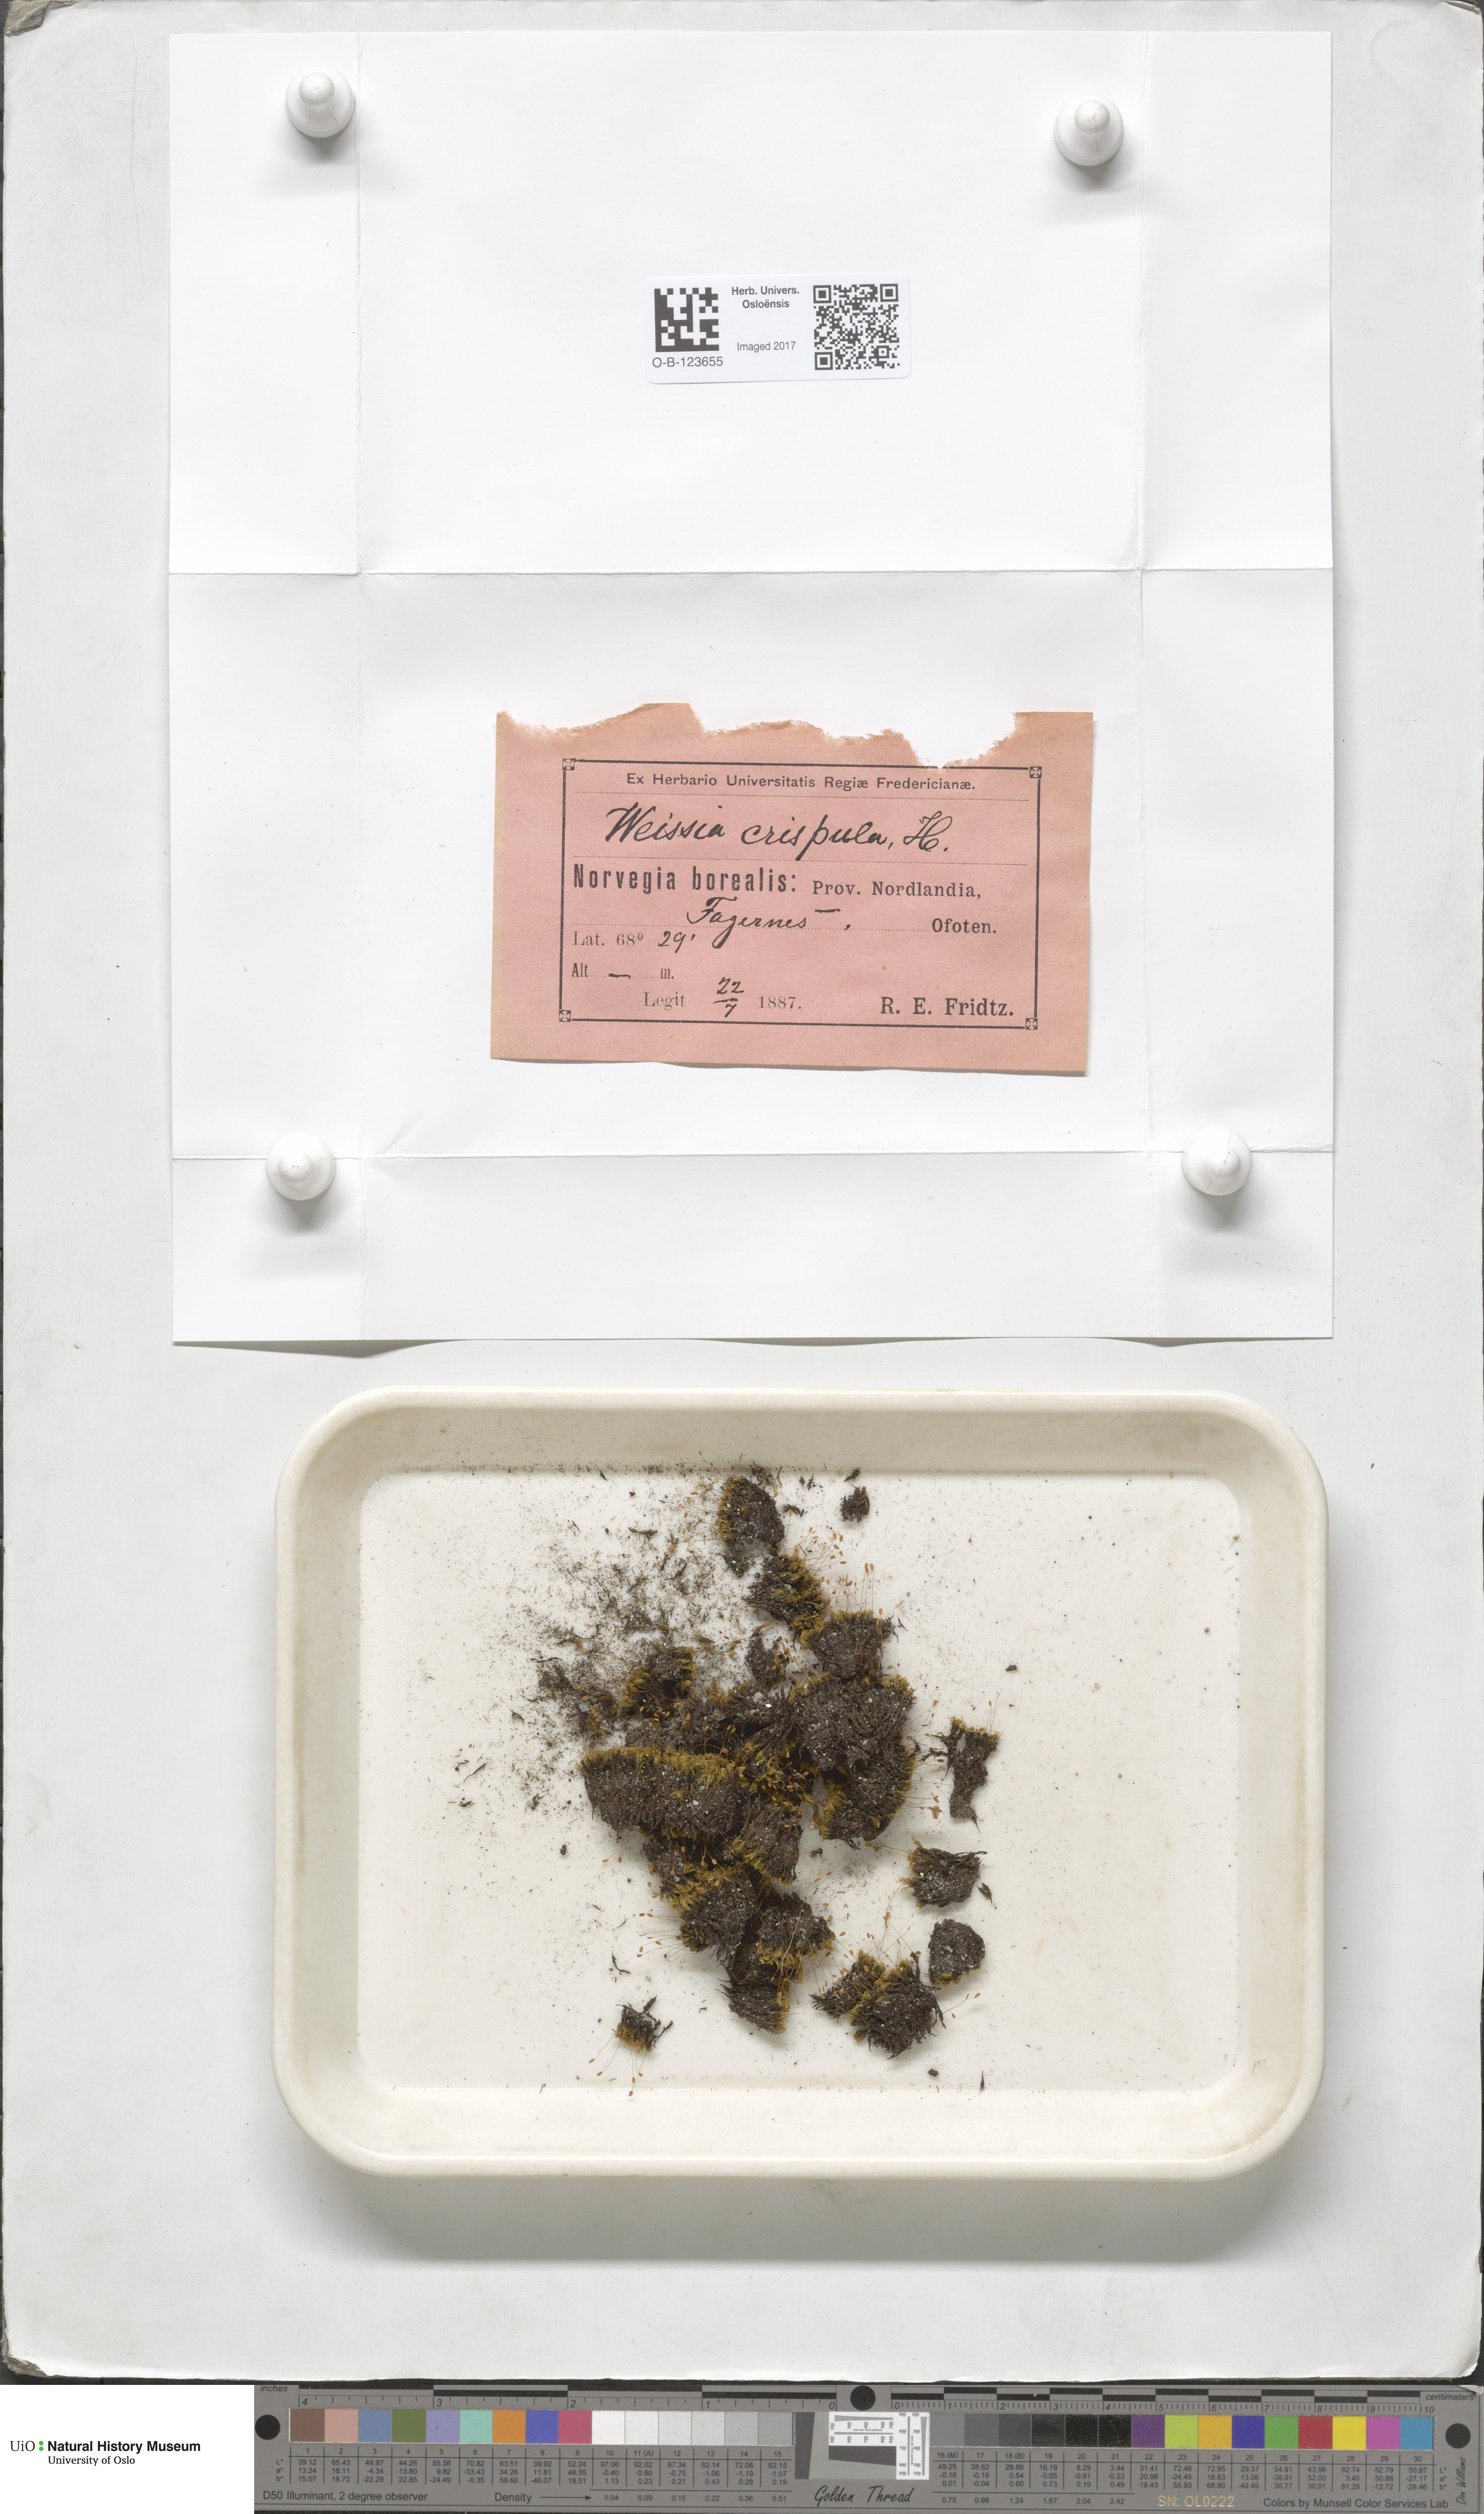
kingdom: Plantae
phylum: Bryophyta
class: Bryopsida
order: Scouleriales
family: Hymenolomataceae
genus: Hymenoloma
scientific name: Hymenoloma crispulum
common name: Mountain pincushion
